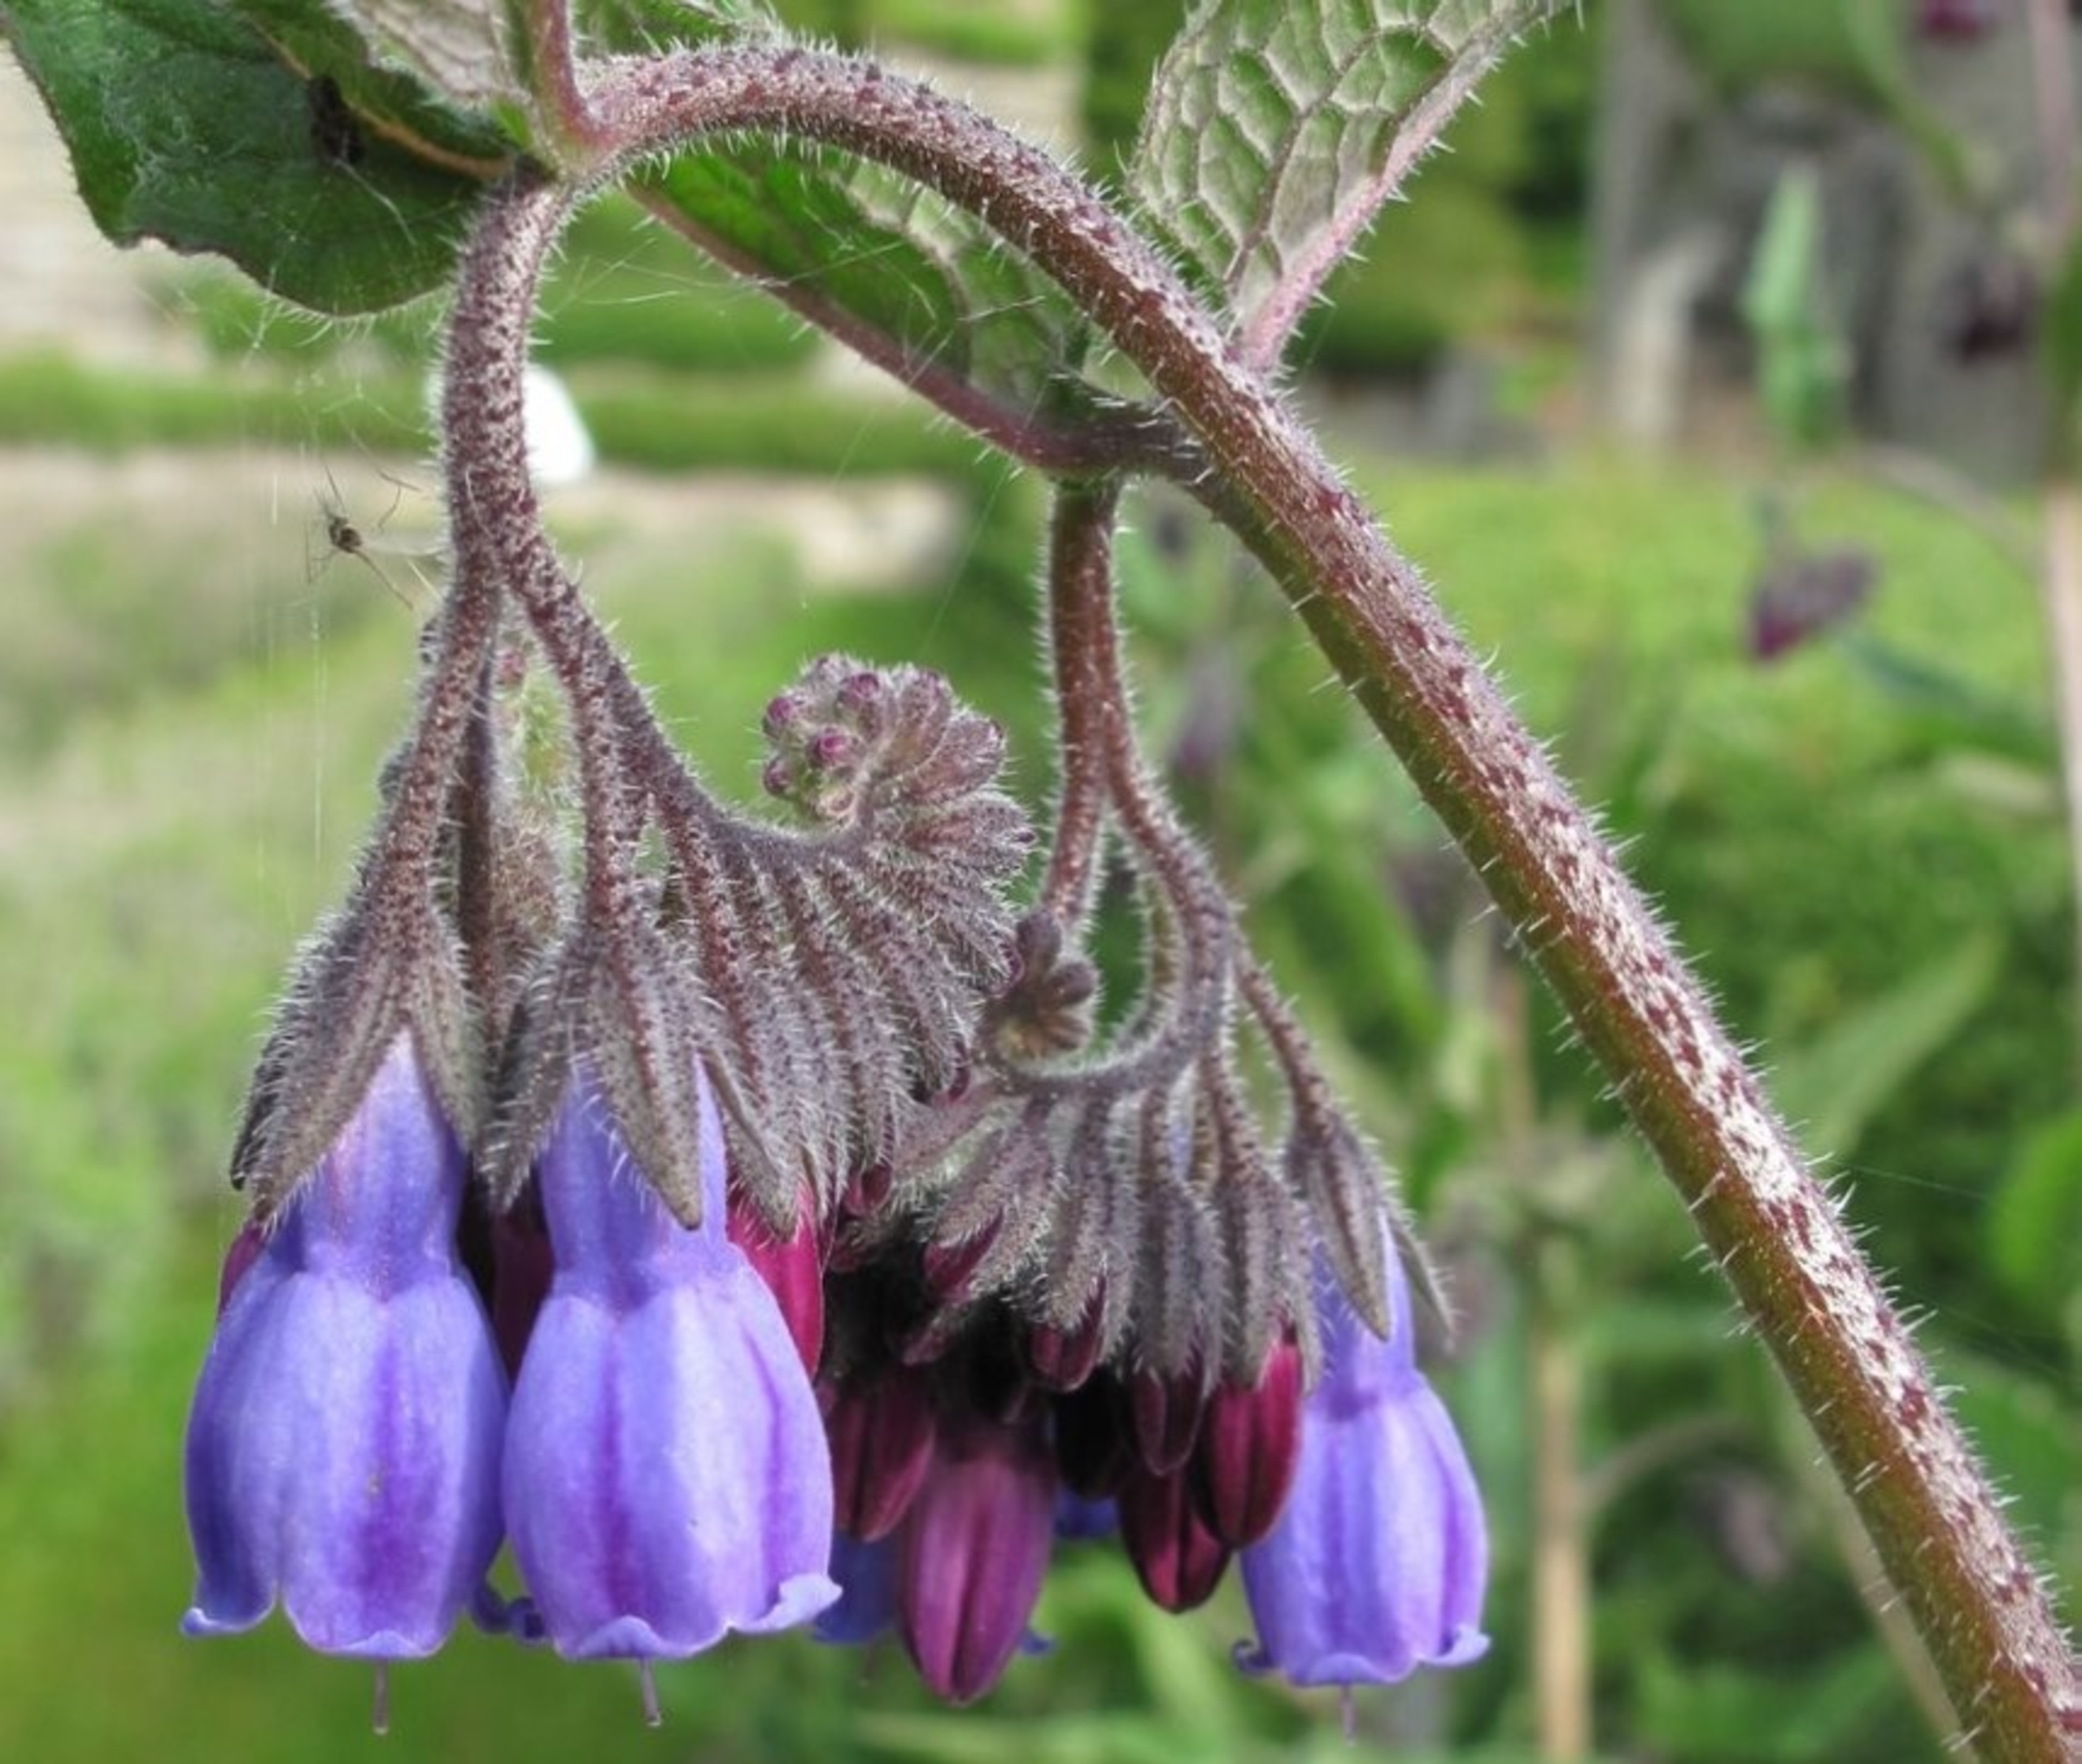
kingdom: Plantae
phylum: Tracheophyta
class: Magnoliopsida
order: Boraginales
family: Boraginaceae
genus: Symphytum
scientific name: Symphytum uplandicum
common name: Foder-kulsukker
